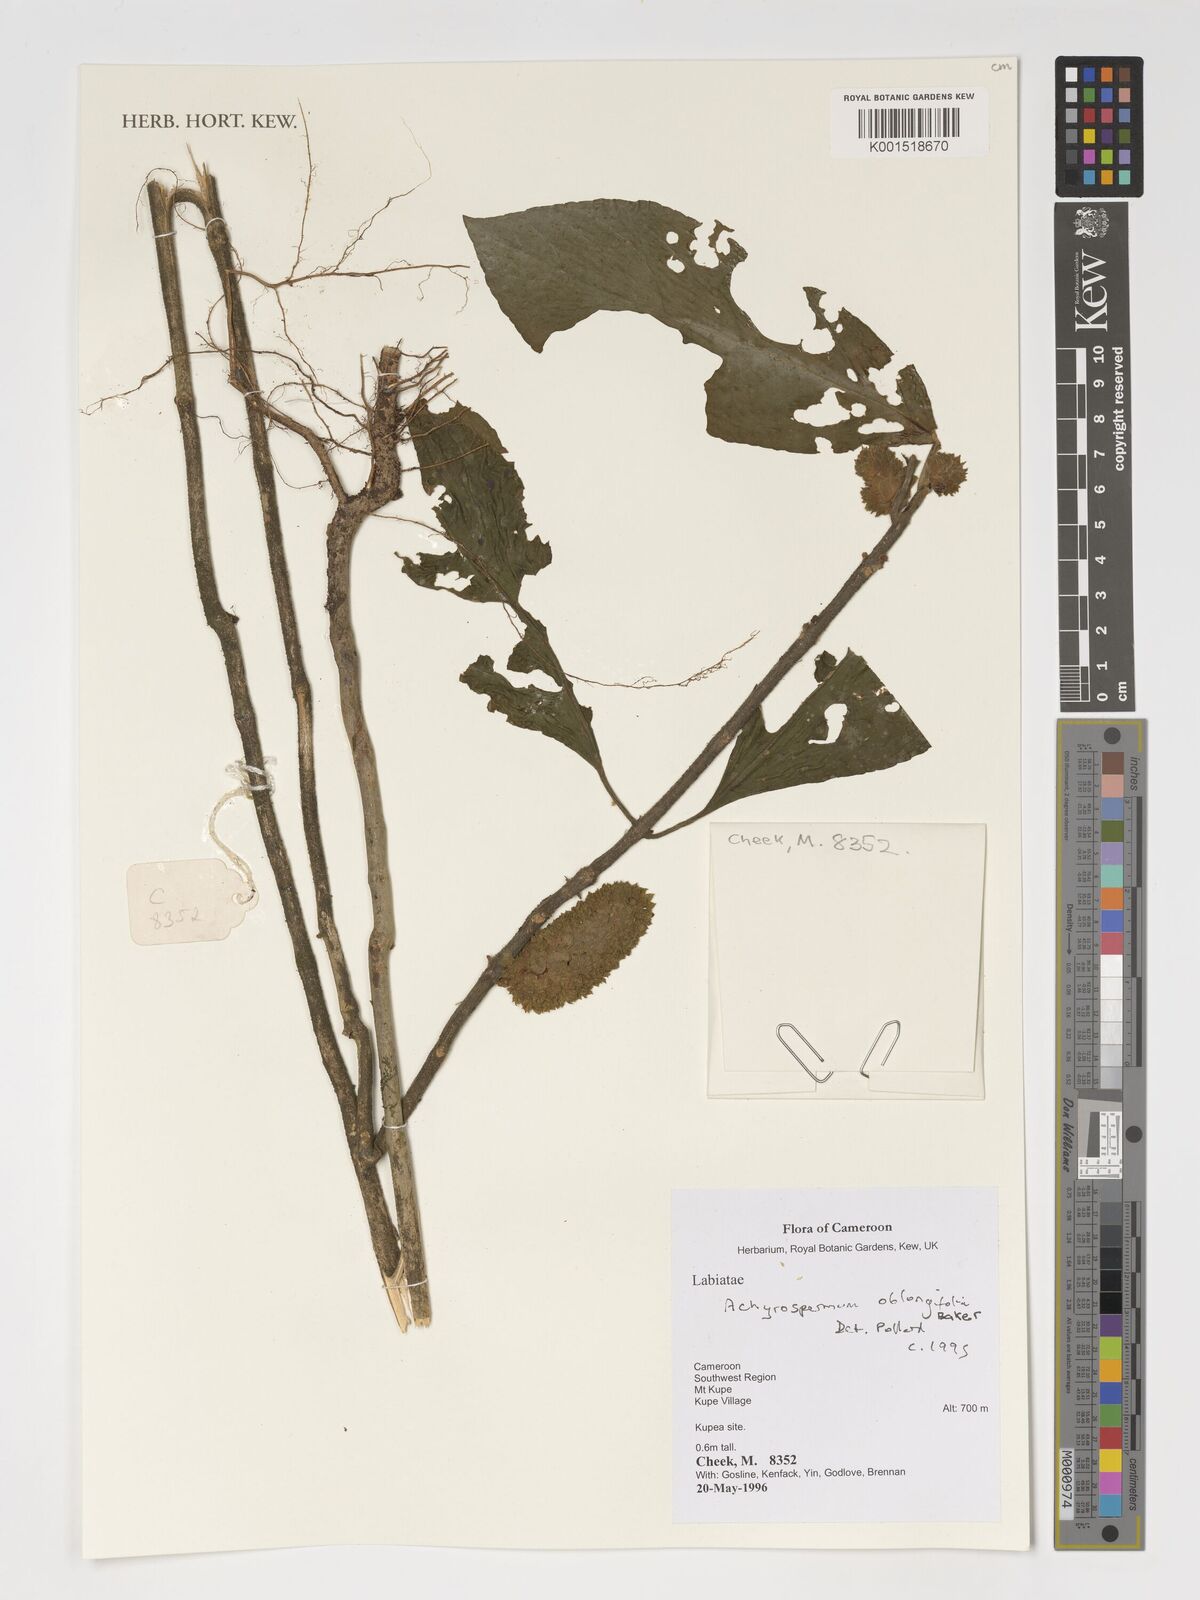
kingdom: Plantae
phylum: Tracheophyta
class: Magnoliopsida
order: Lamiales
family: Lamiaceae
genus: Achyrospermum
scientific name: Achyrospermum oblongifolium
